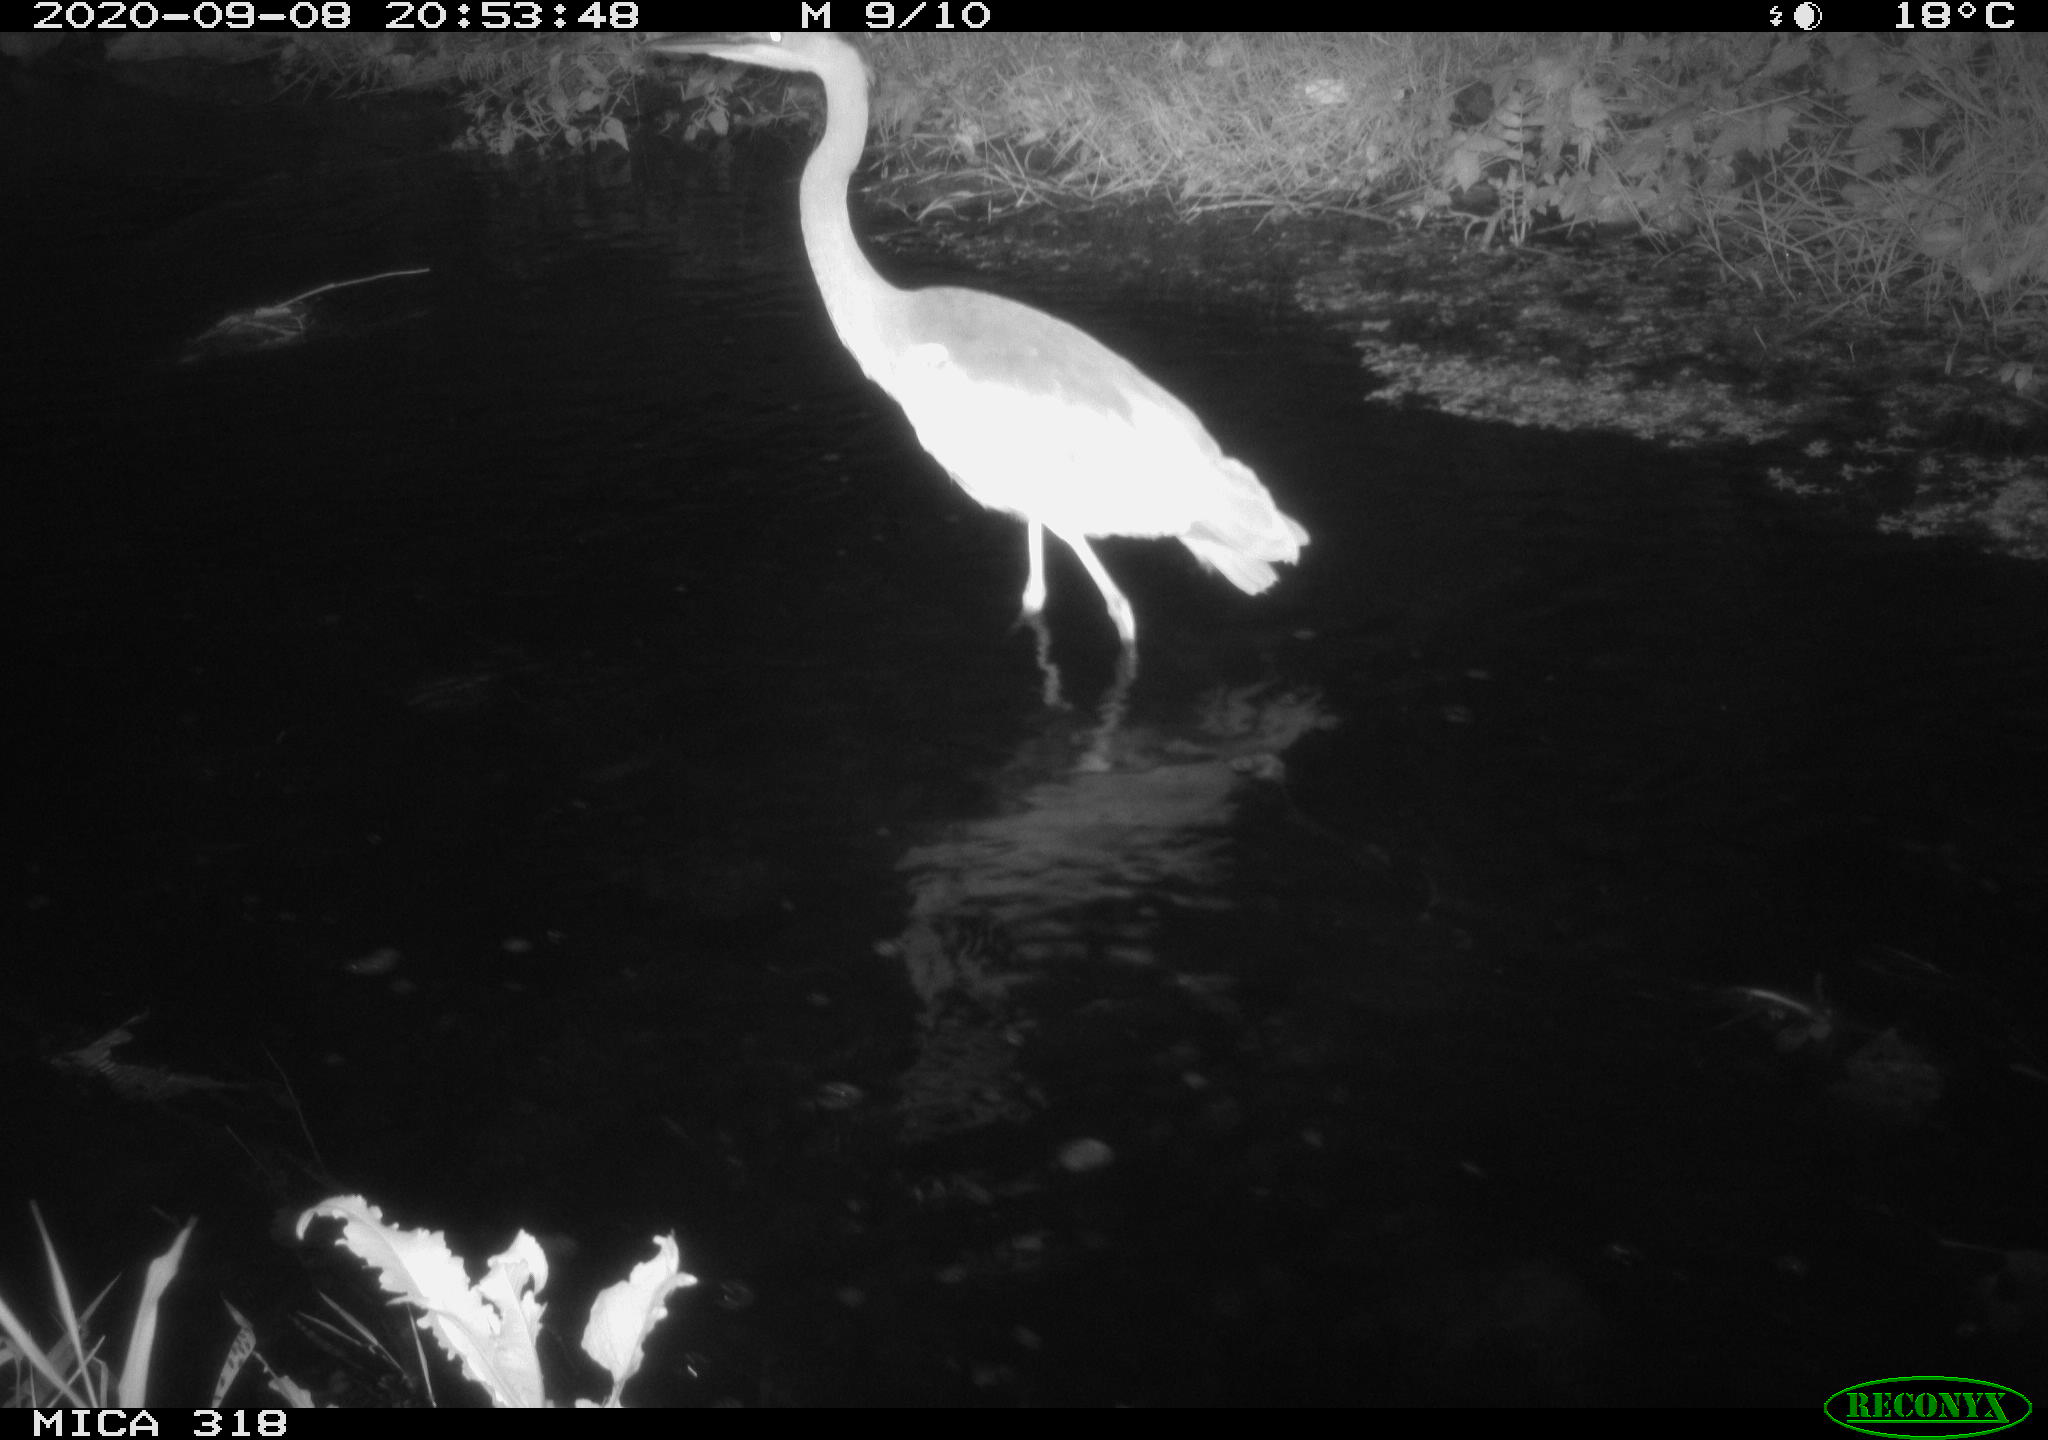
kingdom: Animalia
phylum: Chordata
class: Aves
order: Pelecaniformes
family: Ardeidae
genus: Ardea
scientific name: Ardea
